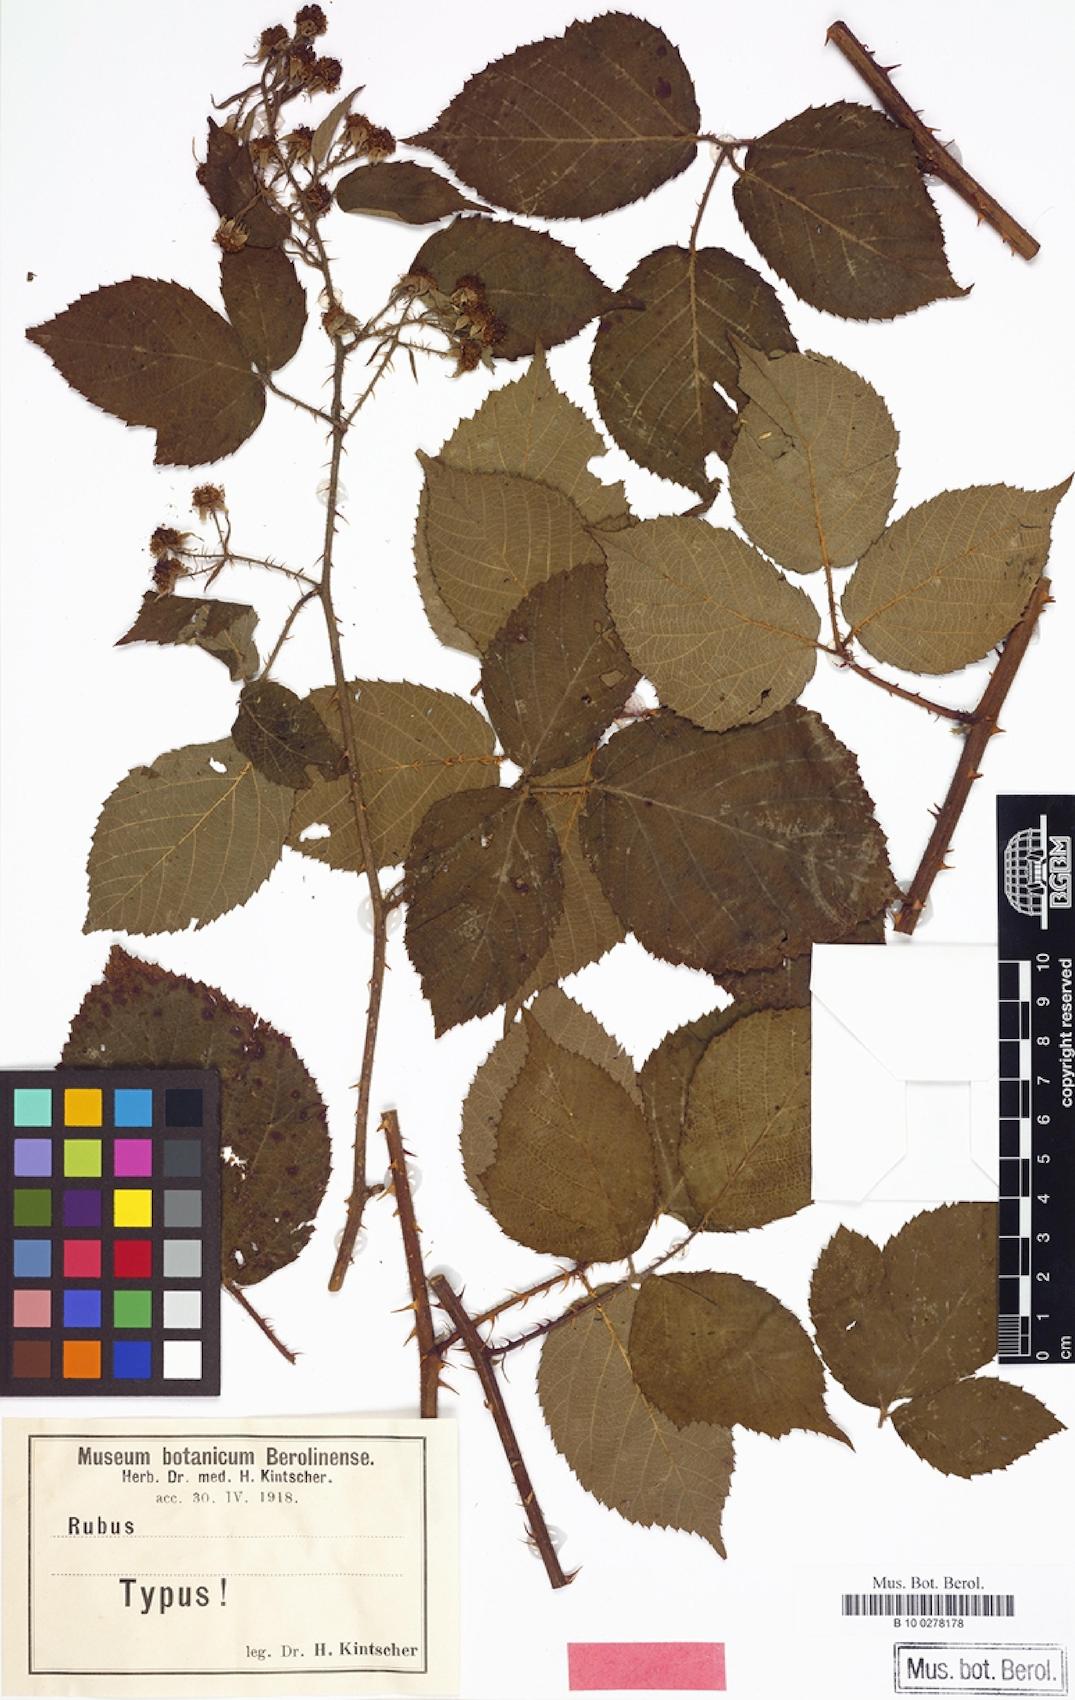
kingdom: Plantae
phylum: Tracheophyta
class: Magnoliopsida
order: Rosales
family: Rosaceae
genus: Rubus
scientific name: Rubus subrotundicaulis
